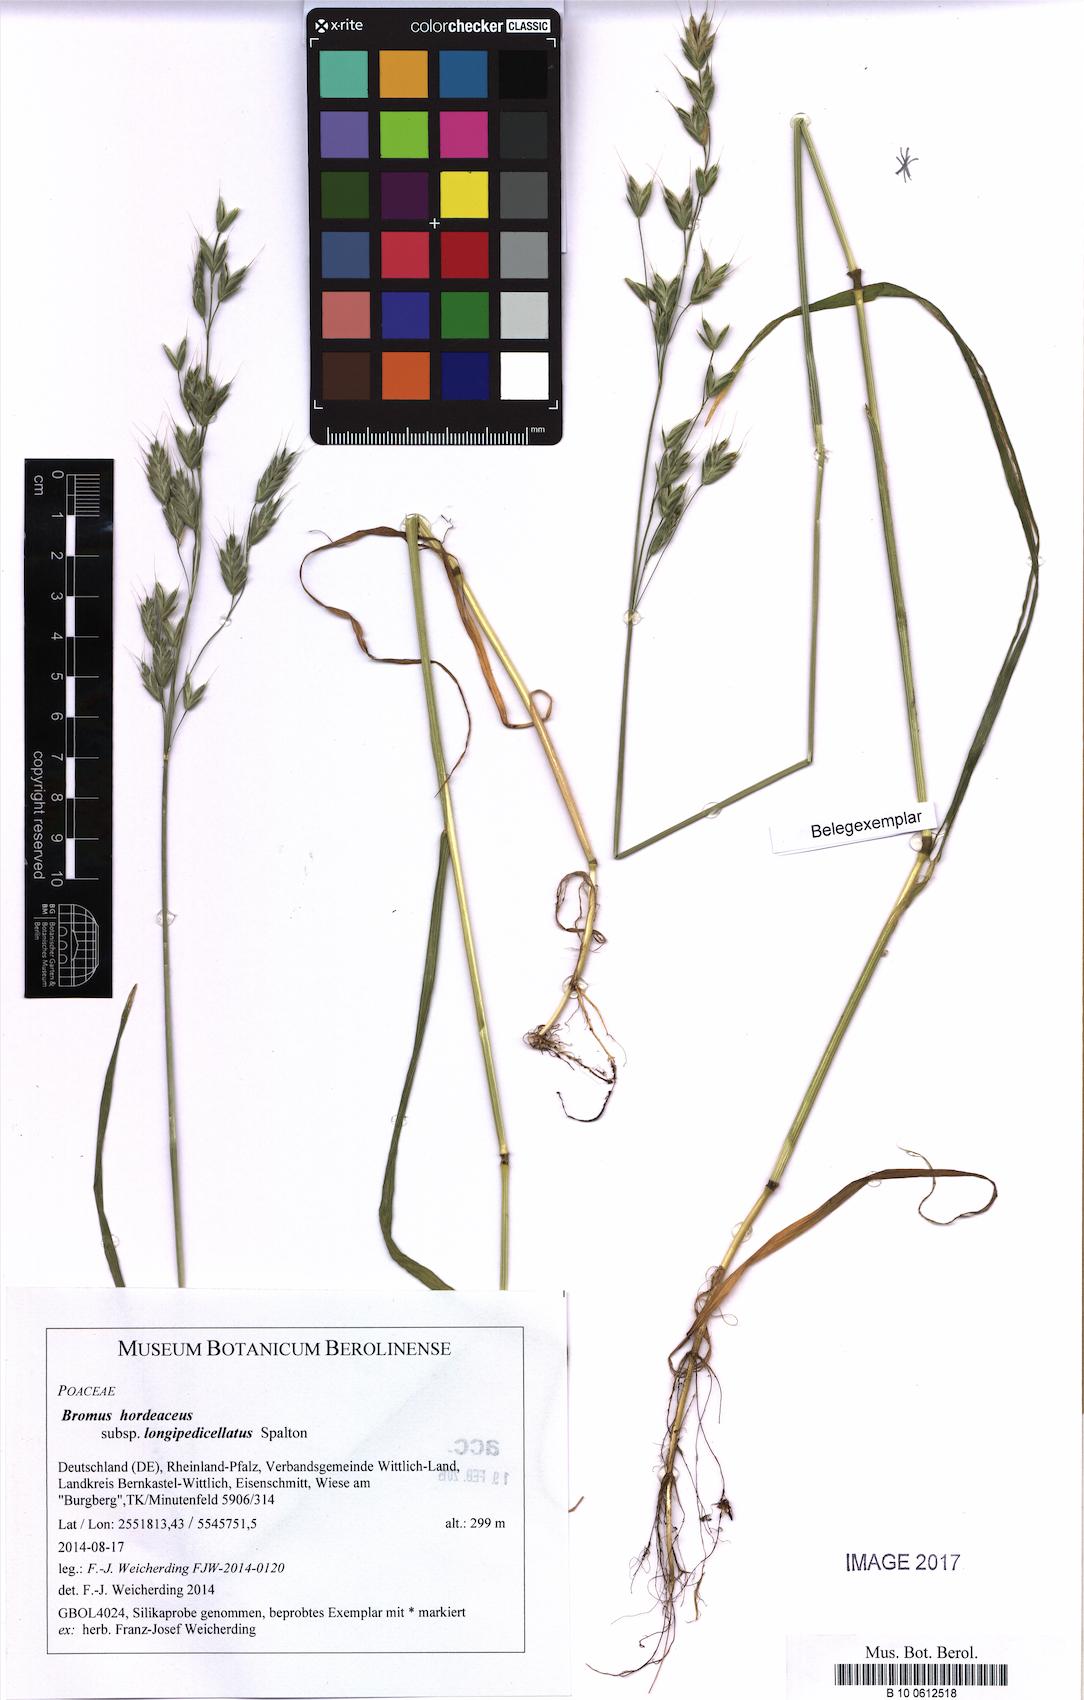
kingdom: Plantae
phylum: Tracheophyta
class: Liliopsida
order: Poales
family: Poaceae
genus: Bromus
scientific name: Bromus hordeaceus
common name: Soft brome
